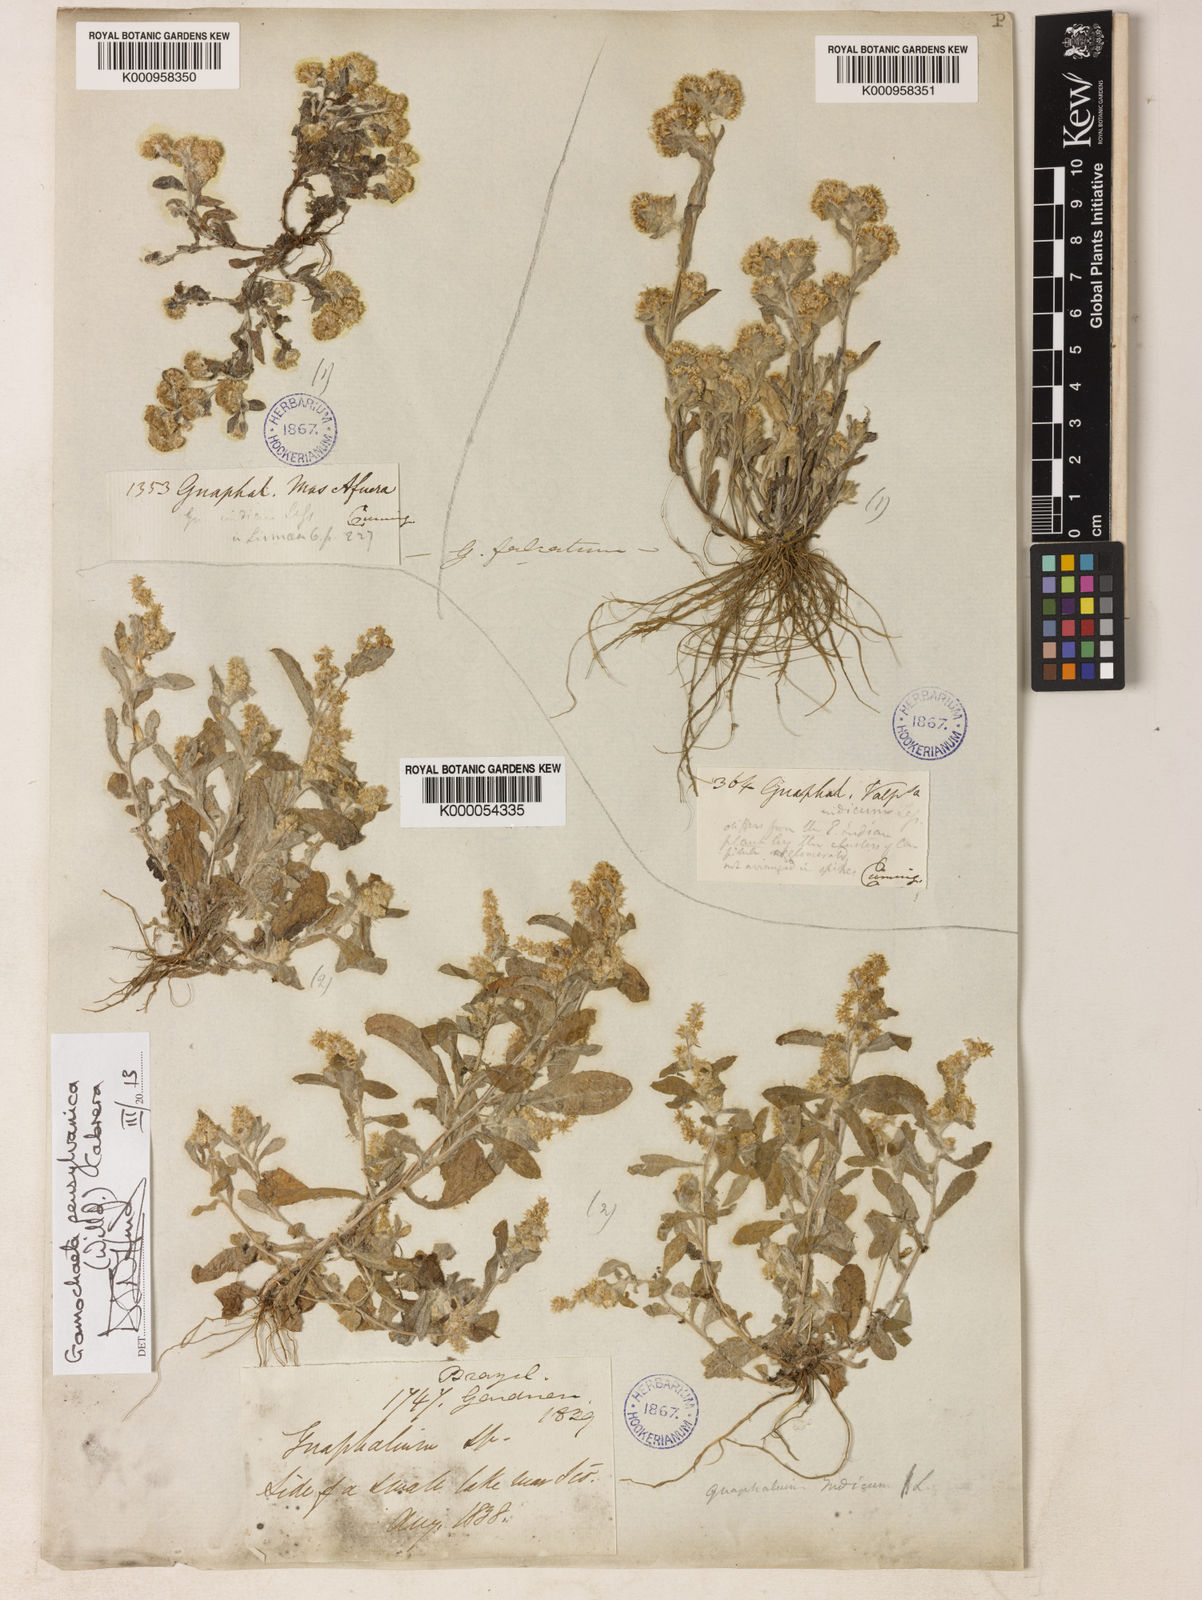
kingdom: Plantae
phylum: Tracheophyta
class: Magnoliopsida
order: Asterales
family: Asteraceae
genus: Gamochaeta
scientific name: Gamochaeta pensylvanica
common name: Pennsylvania everlasting
